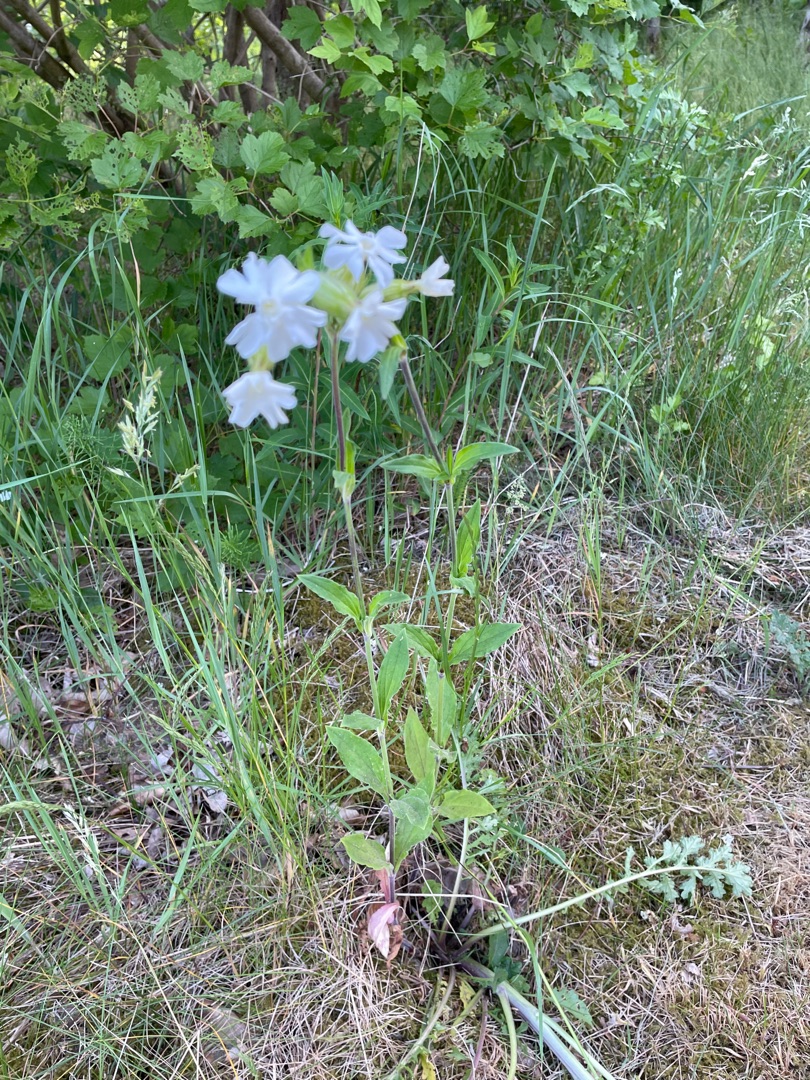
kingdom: Plantae
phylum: Tracheophyta
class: Magnoliopsida
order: Caryophyllales
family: Caryophyllaceae
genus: Silene
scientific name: Silene latifolia
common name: Aftenpragtstjerne
